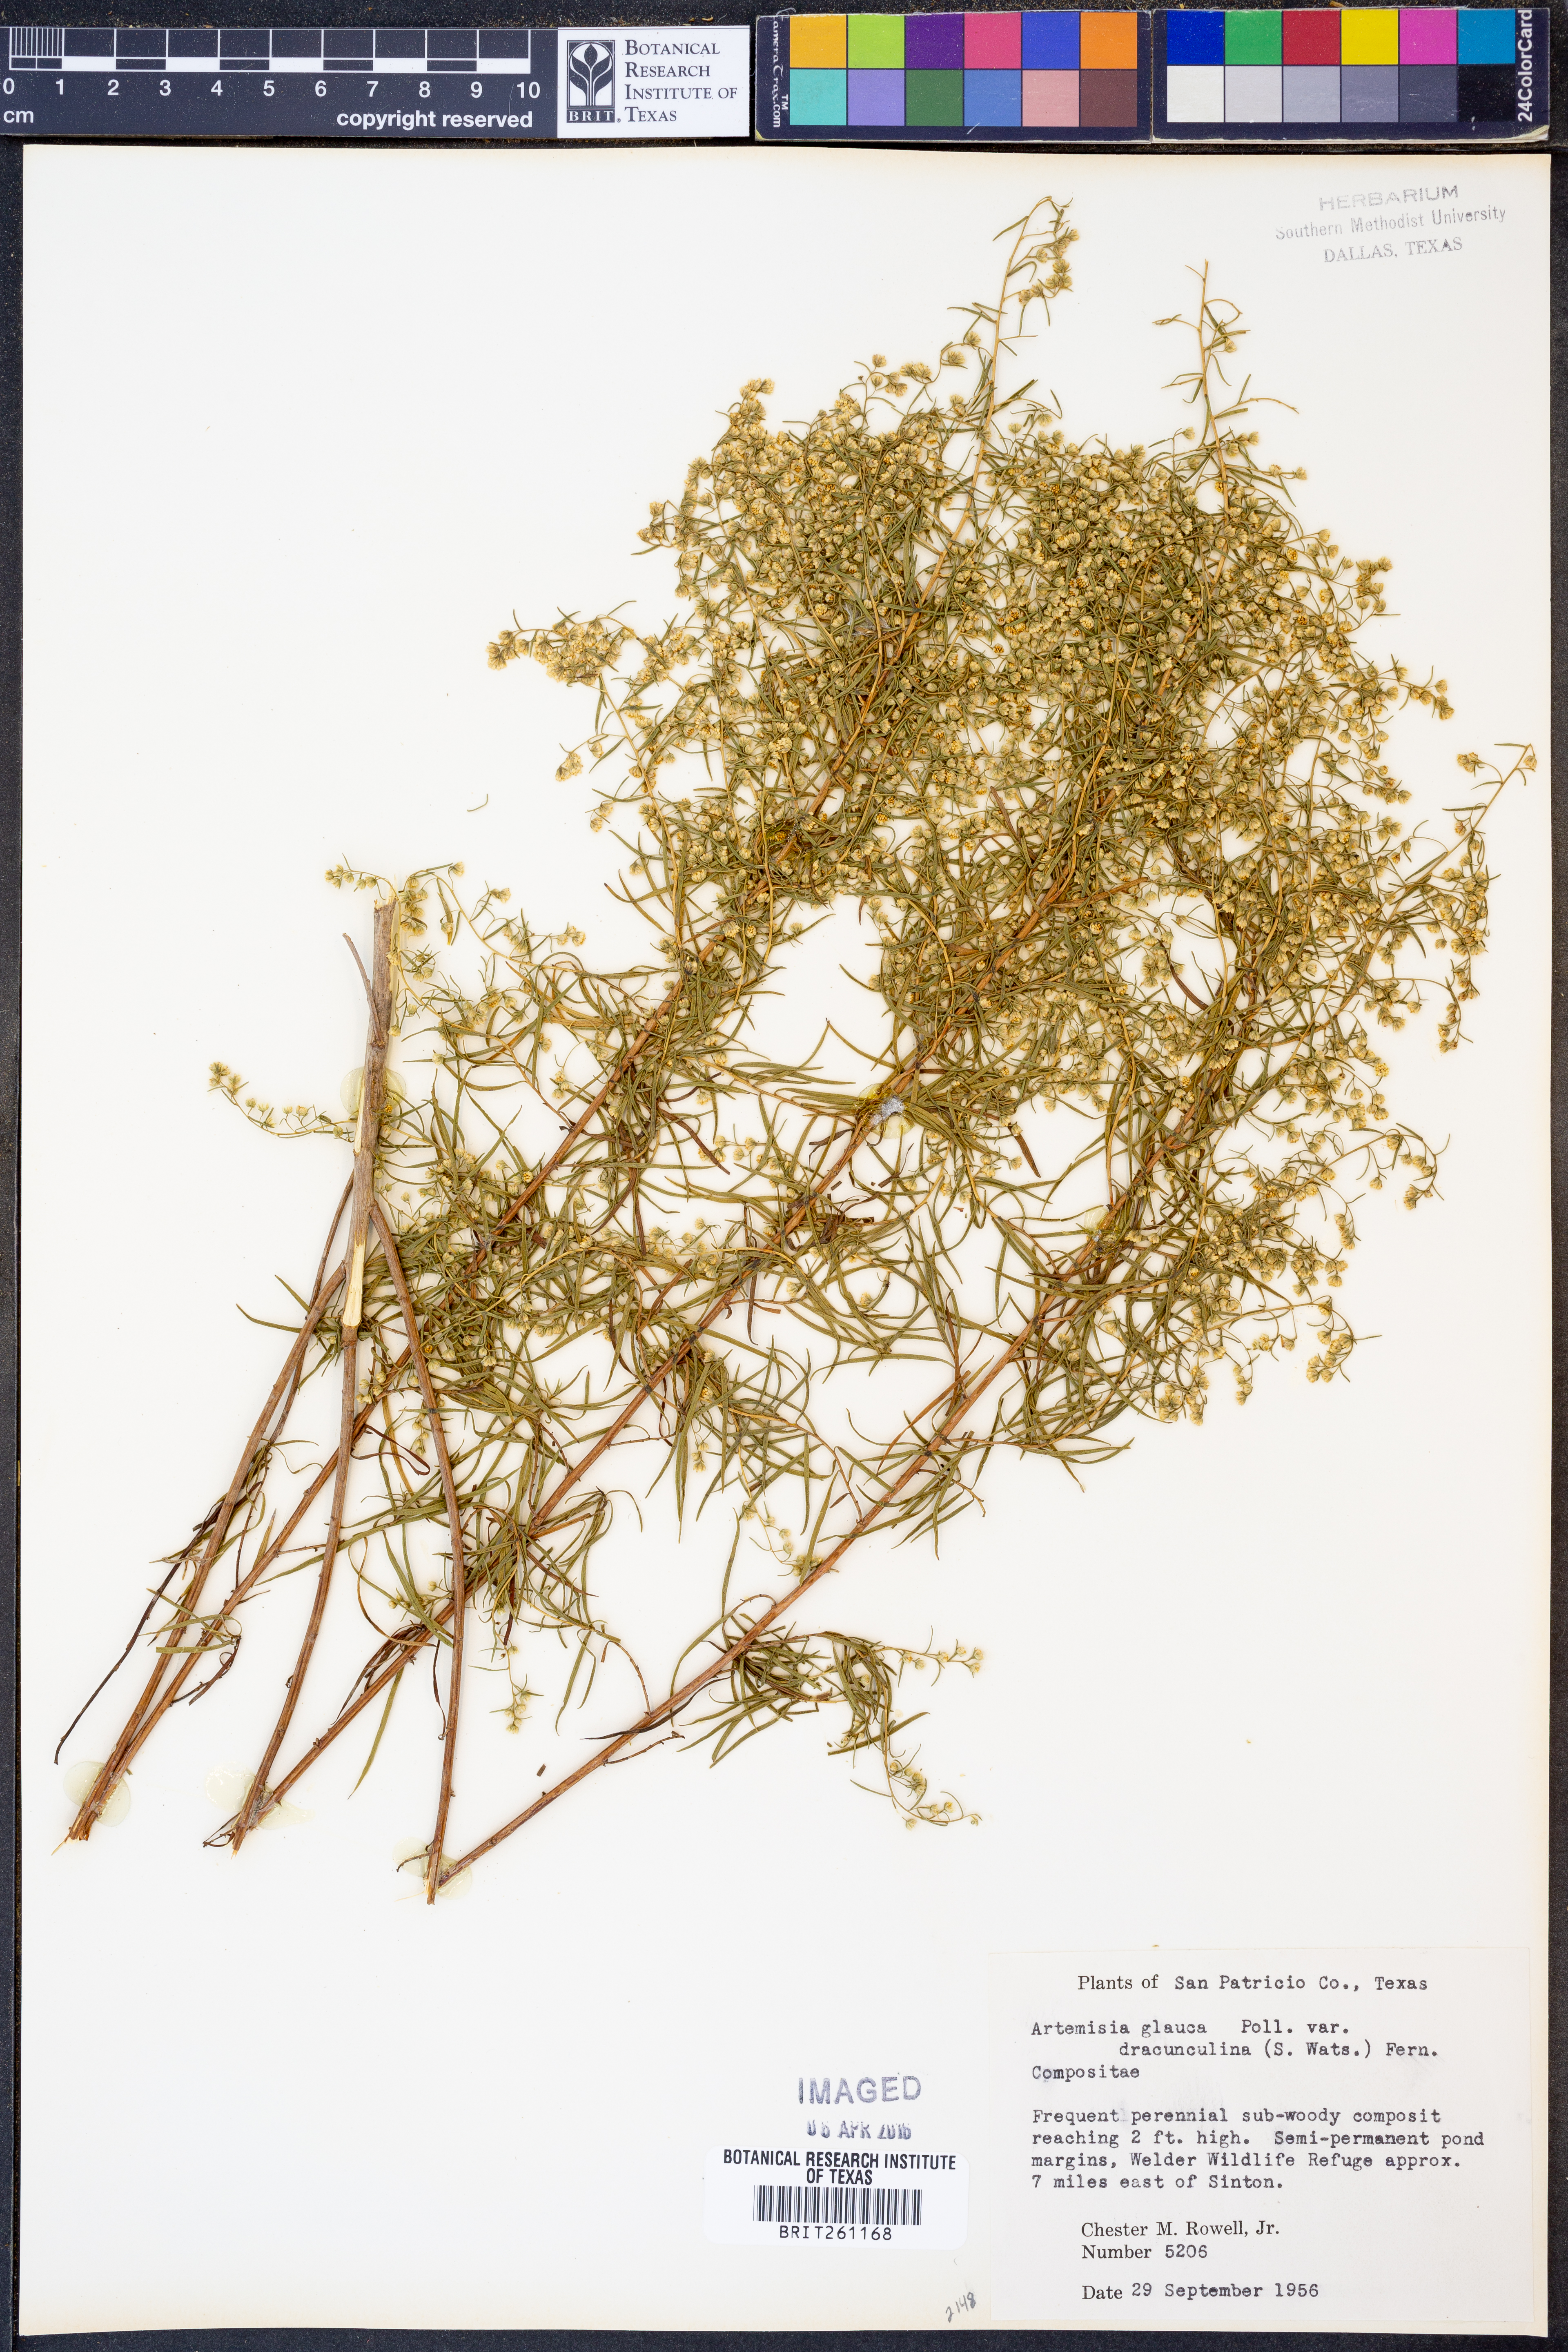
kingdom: Plantae
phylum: Tracheophyta
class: Magnoliopsida
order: Asterales
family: Asteraceae
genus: Artemisia
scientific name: Artemisia dracunculus
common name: Tarragon
